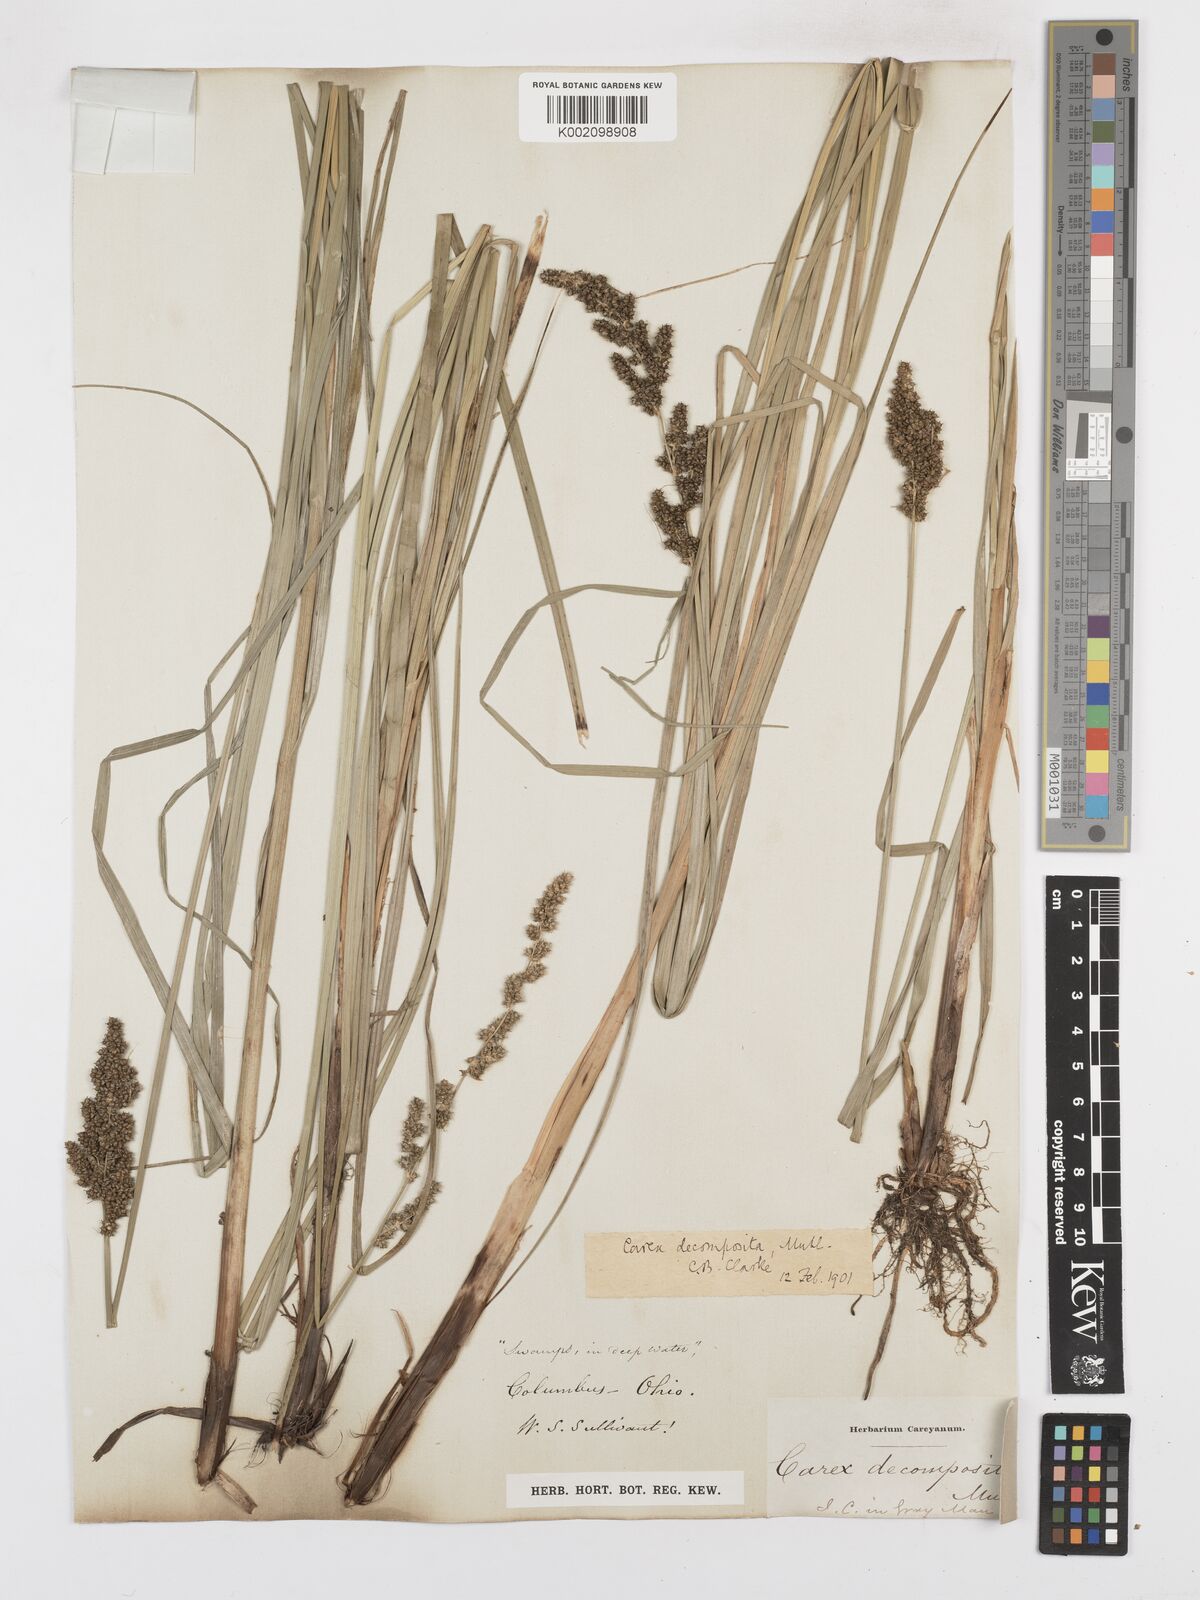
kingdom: Plantae
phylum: Tracheophyta
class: Liliopsida
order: Poales
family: Cyperaceae
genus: Carex
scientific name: Carex decomposita
